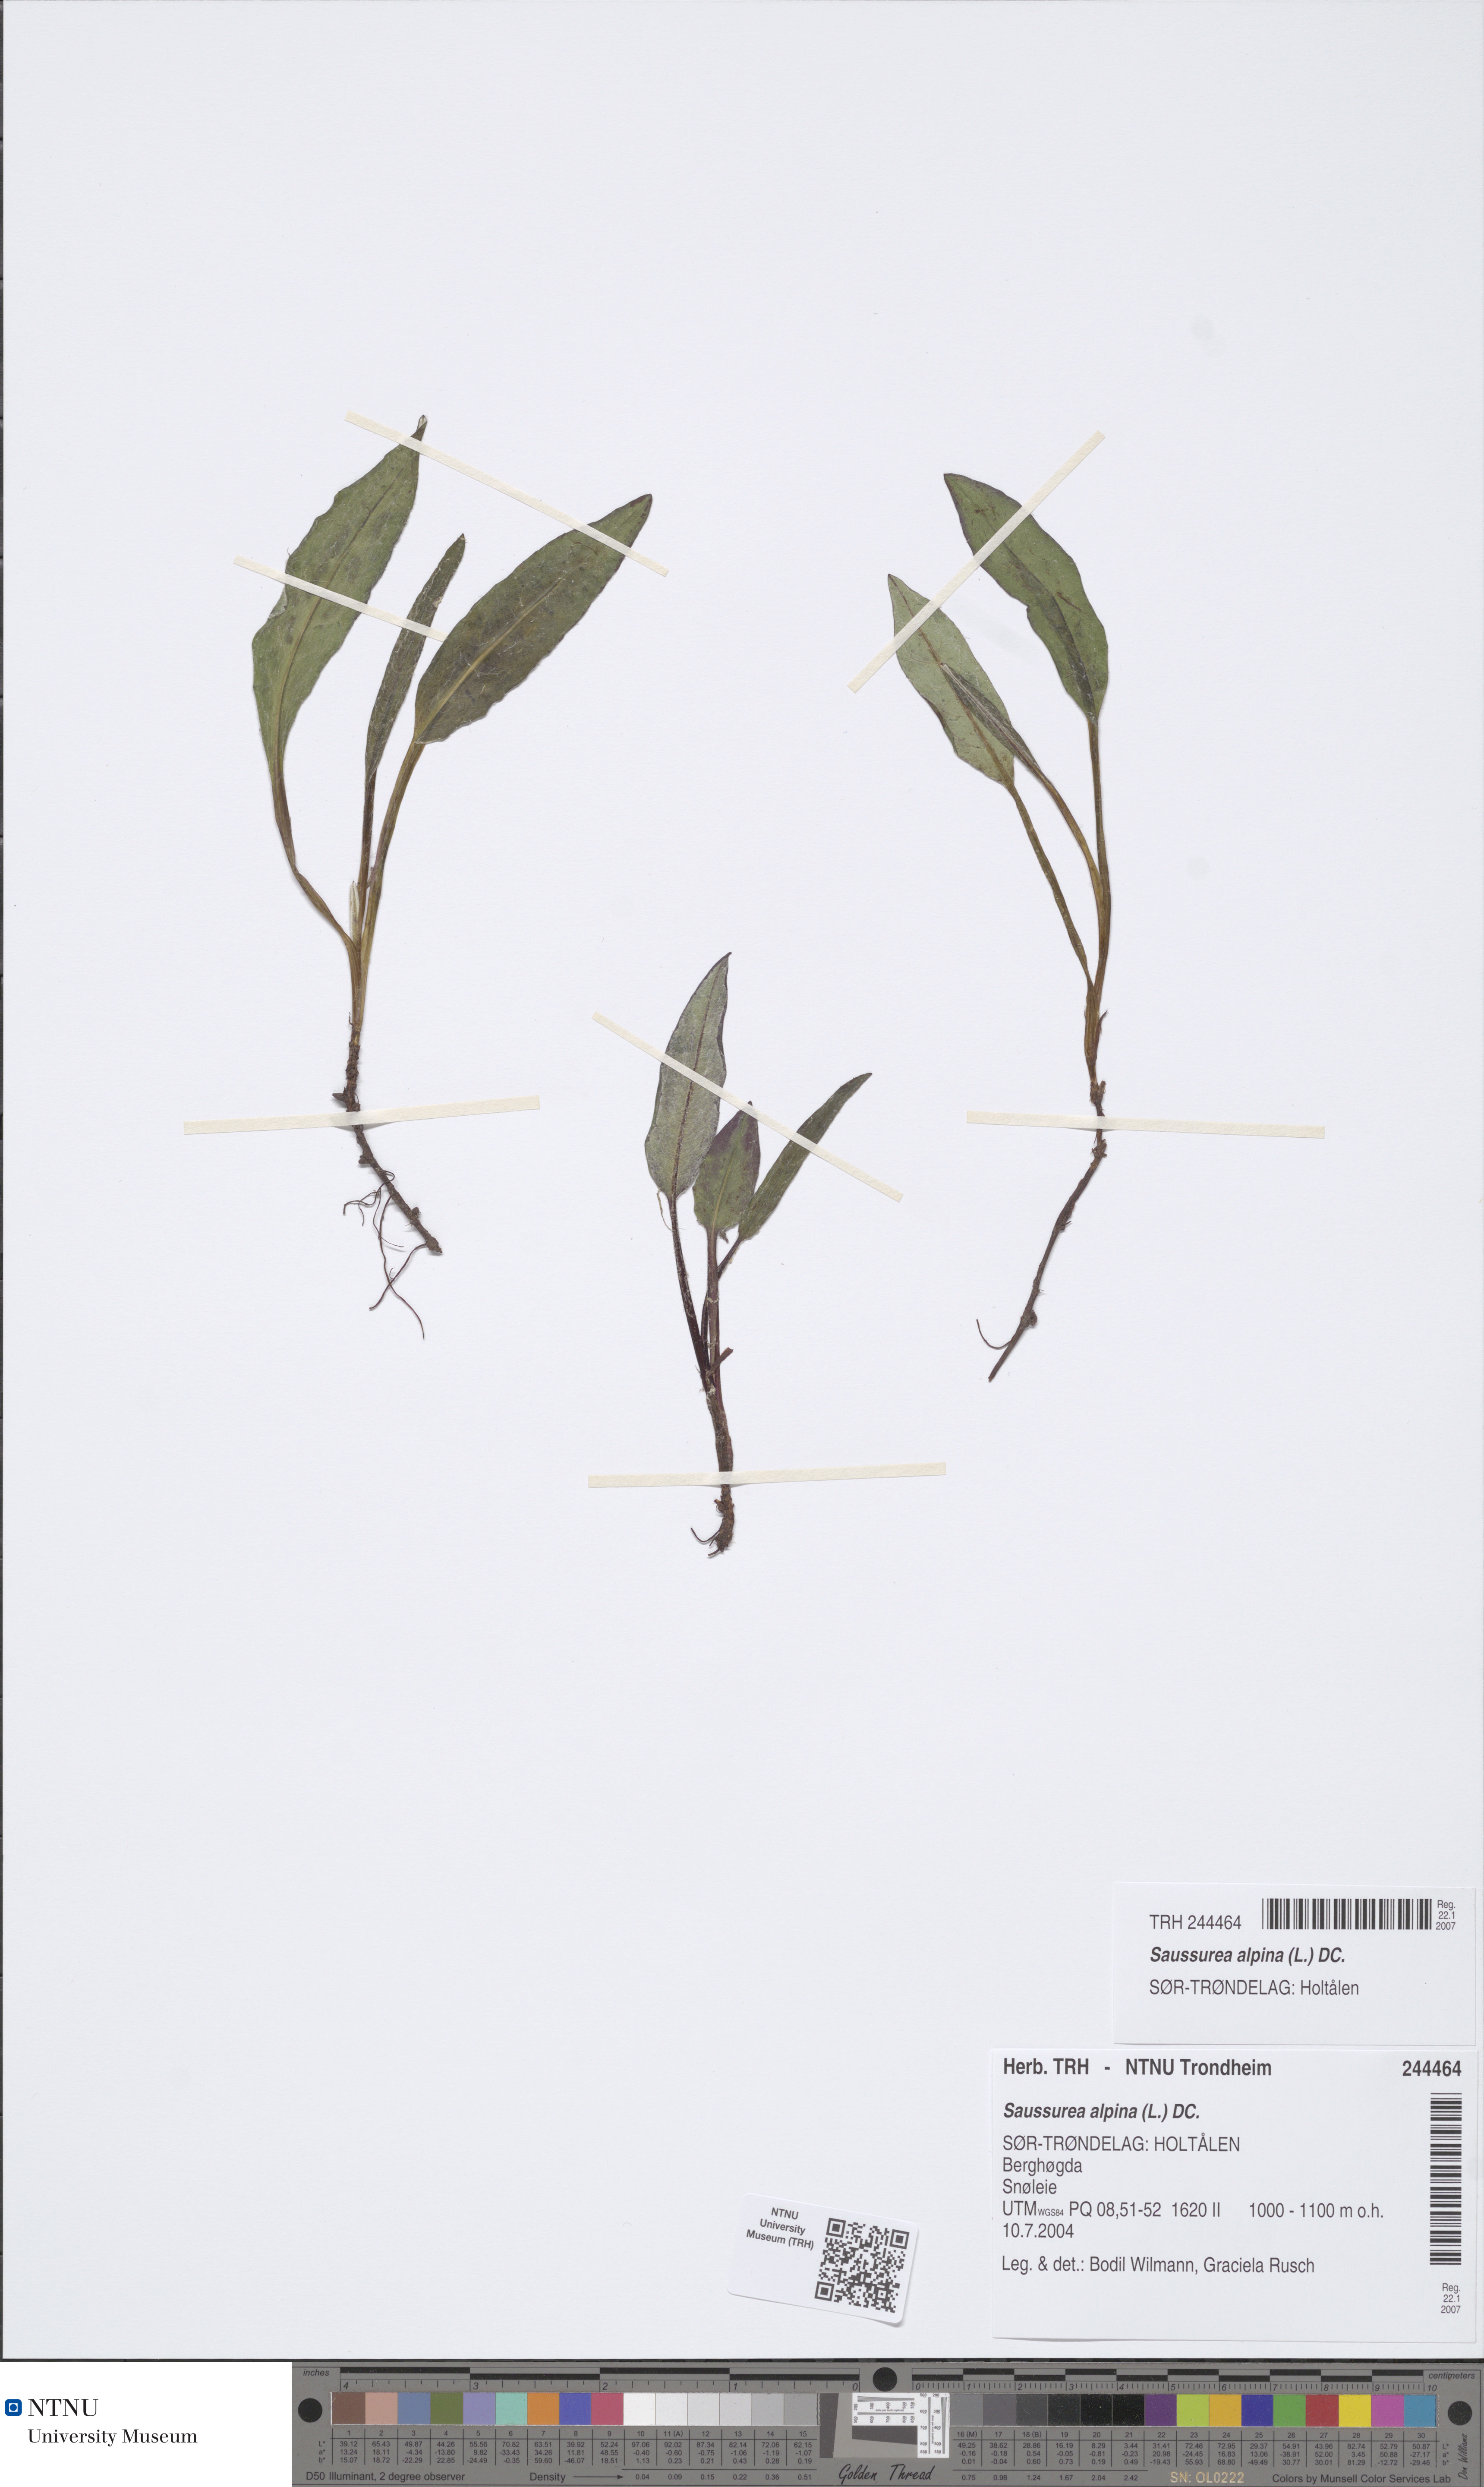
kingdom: Plantae
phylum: Tracheophyta
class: Magnoliopsida
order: Asterales
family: Asteraceae
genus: Saussurea
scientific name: Saussurea alpina
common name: Alpine saw-wort
